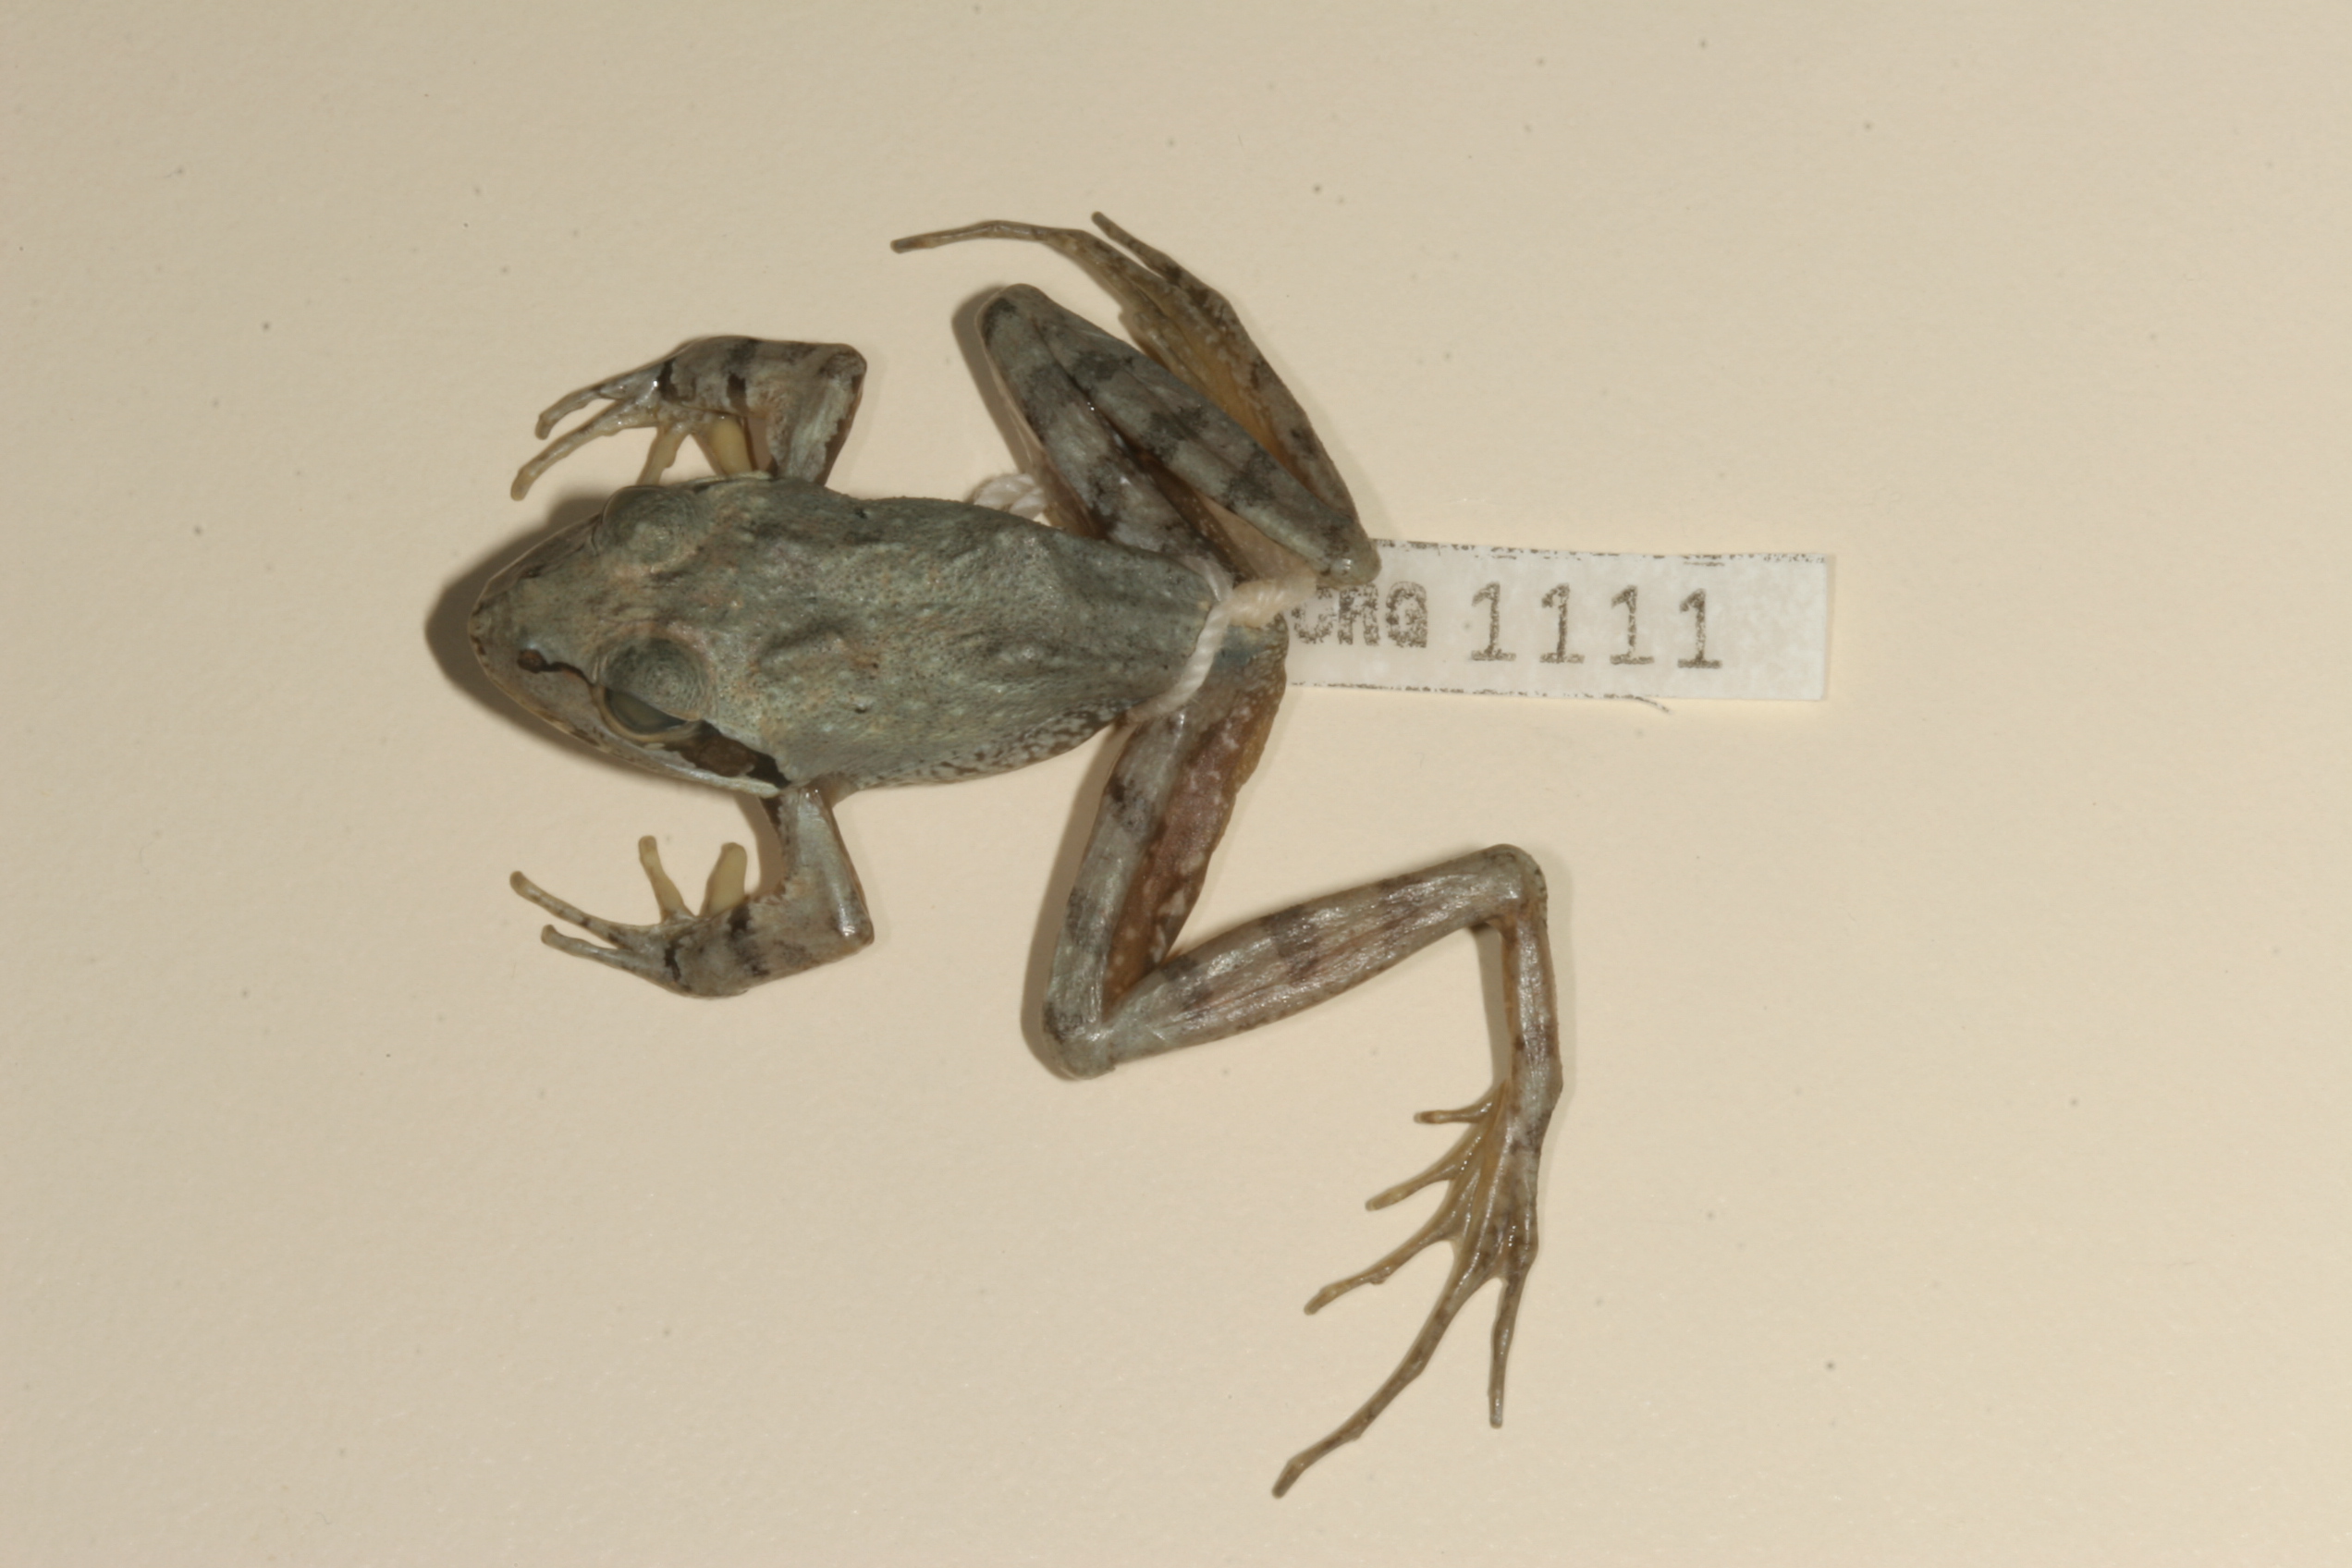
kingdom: Animalia
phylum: Chordata
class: Amphibia
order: Anura
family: Pyxicephalidae
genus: Strongylopus
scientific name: Strongylopus grayii
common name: Gray's stream frog
